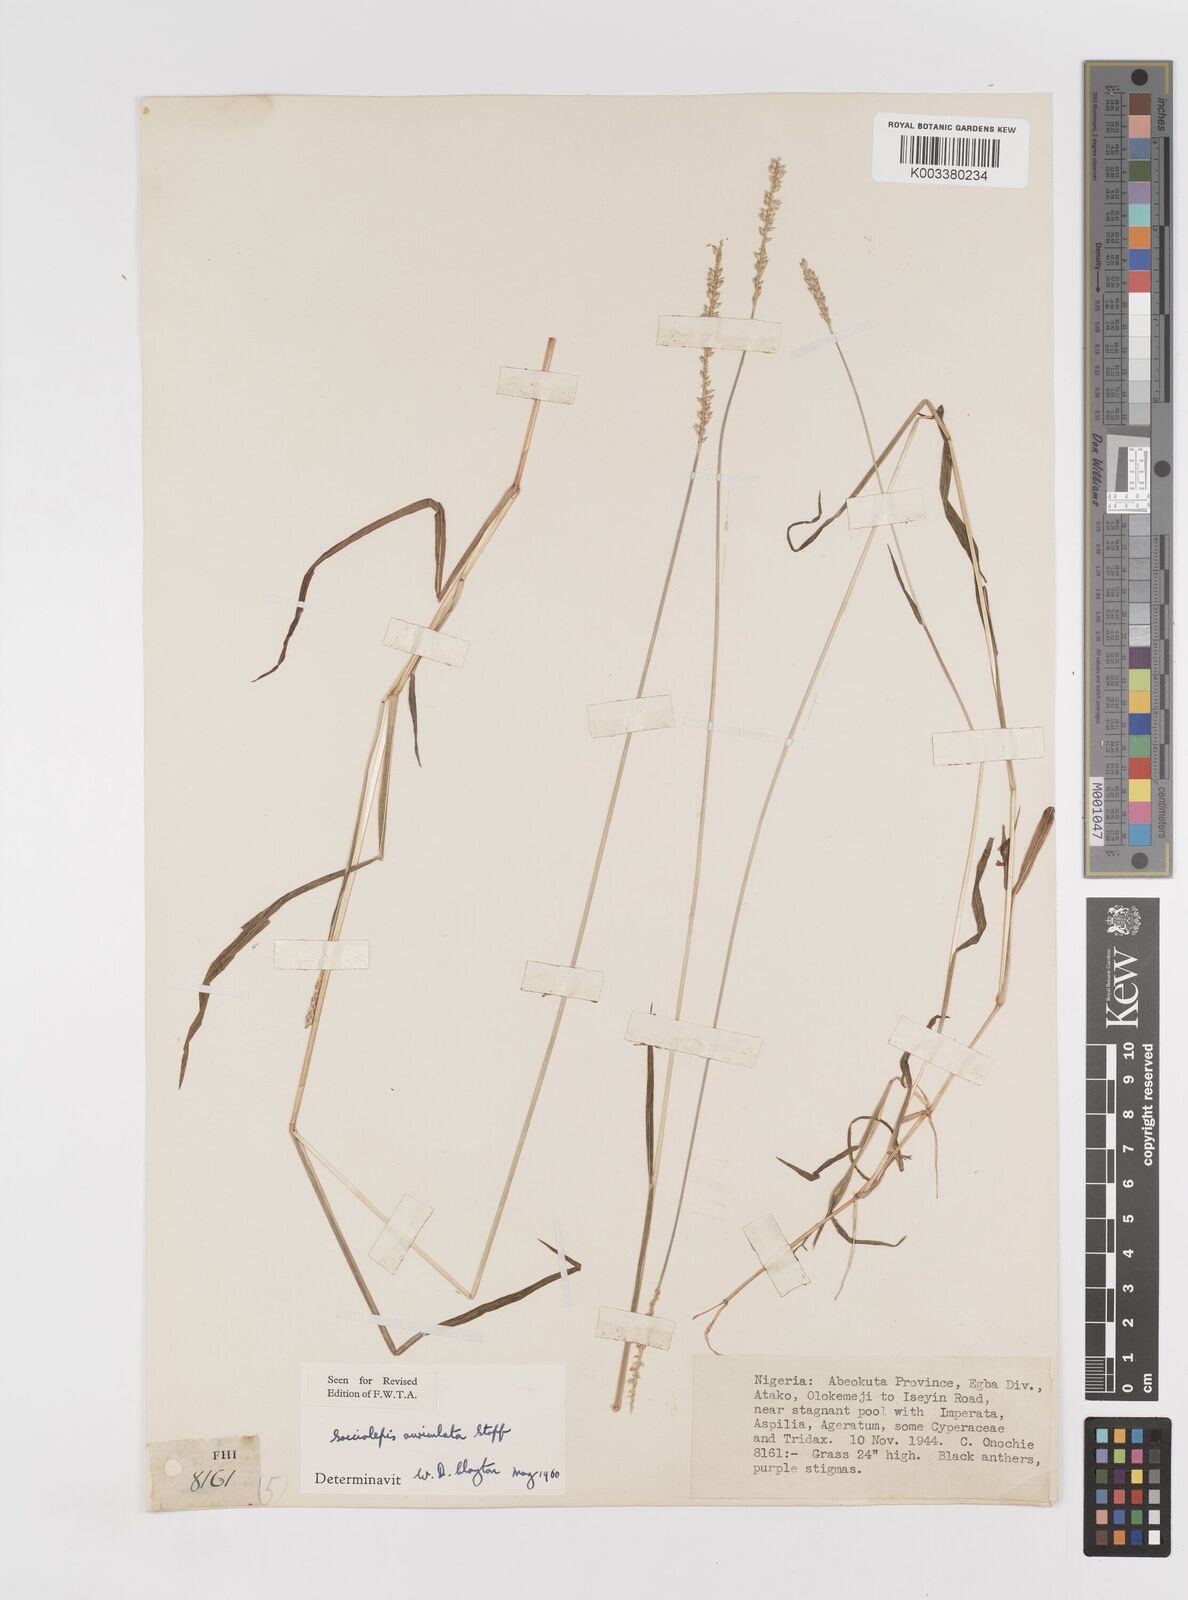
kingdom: Plantae
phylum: Tracheophyta
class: Liliopsida
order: Poales
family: Poaceae
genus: Sacciolepis
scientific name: Sacciolepis indica
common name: Glenwoodgrass
